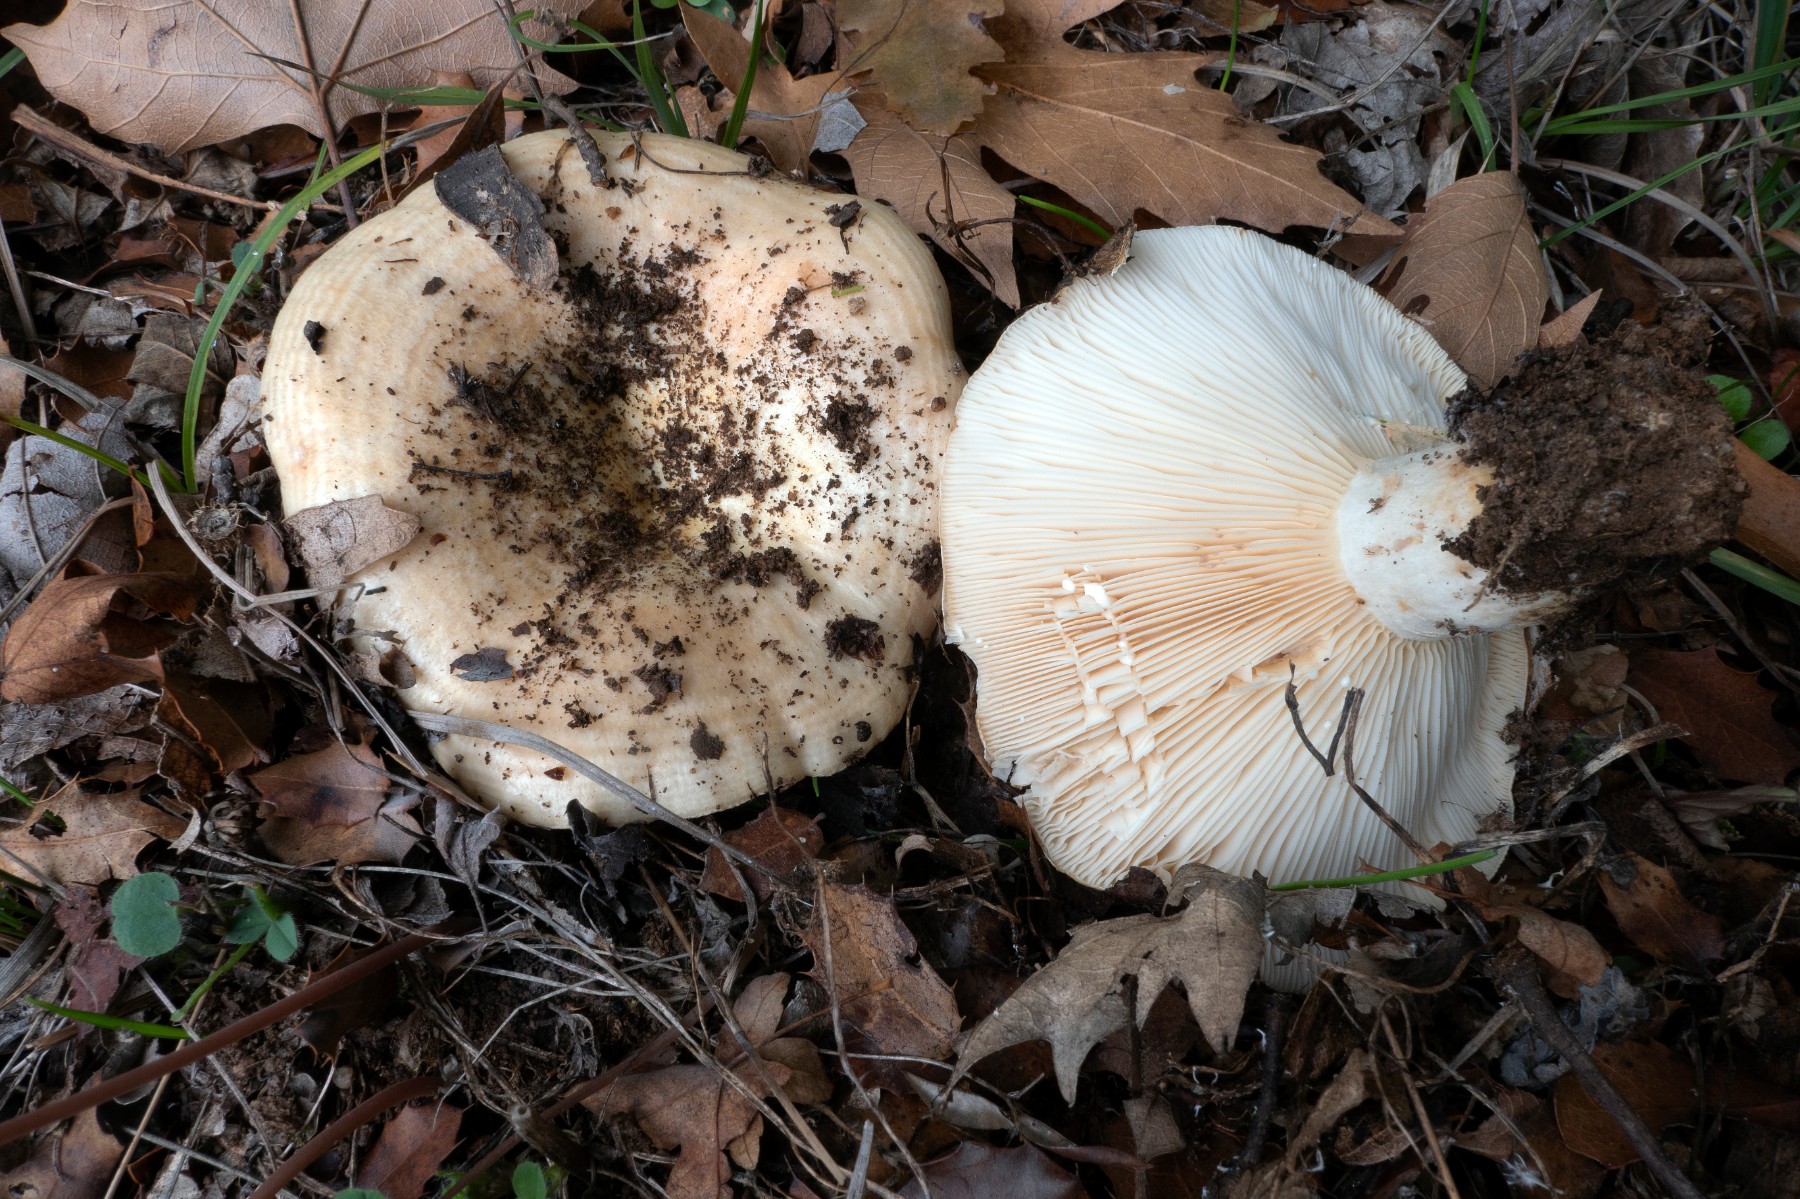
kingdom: Fungi
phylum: Basidiomycota
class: Agaricomycetes
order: Russulales
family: Russulaceae
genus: Lactarius
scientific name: Lactarius zonarius
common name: zoneret mælkehat
